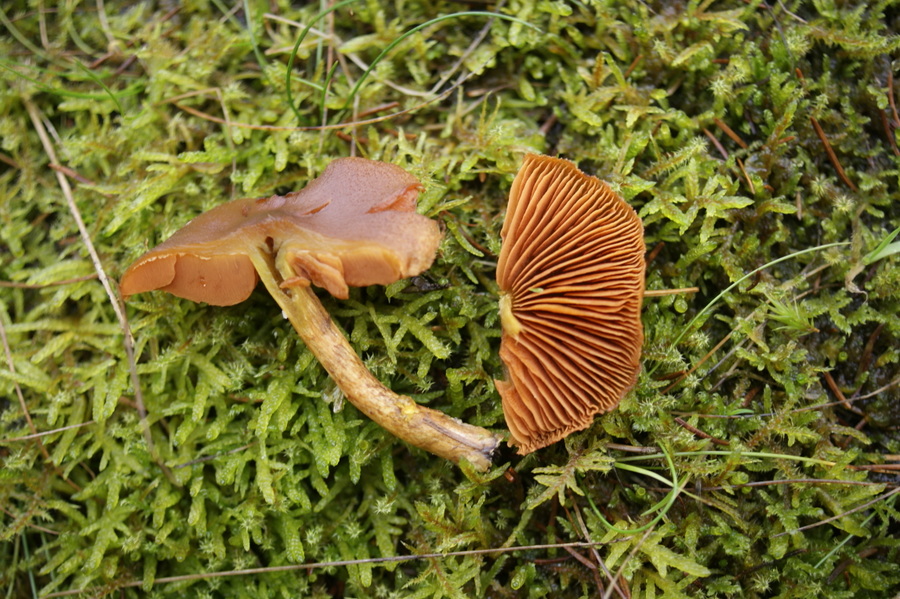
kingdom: Fungi
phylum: Basidiomycota
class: Agaricomycetes
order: Agaricales
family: Cortinariaceae
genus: Cortinarius
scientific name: Cortinarius malicorius
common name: grønkødet slørhat
